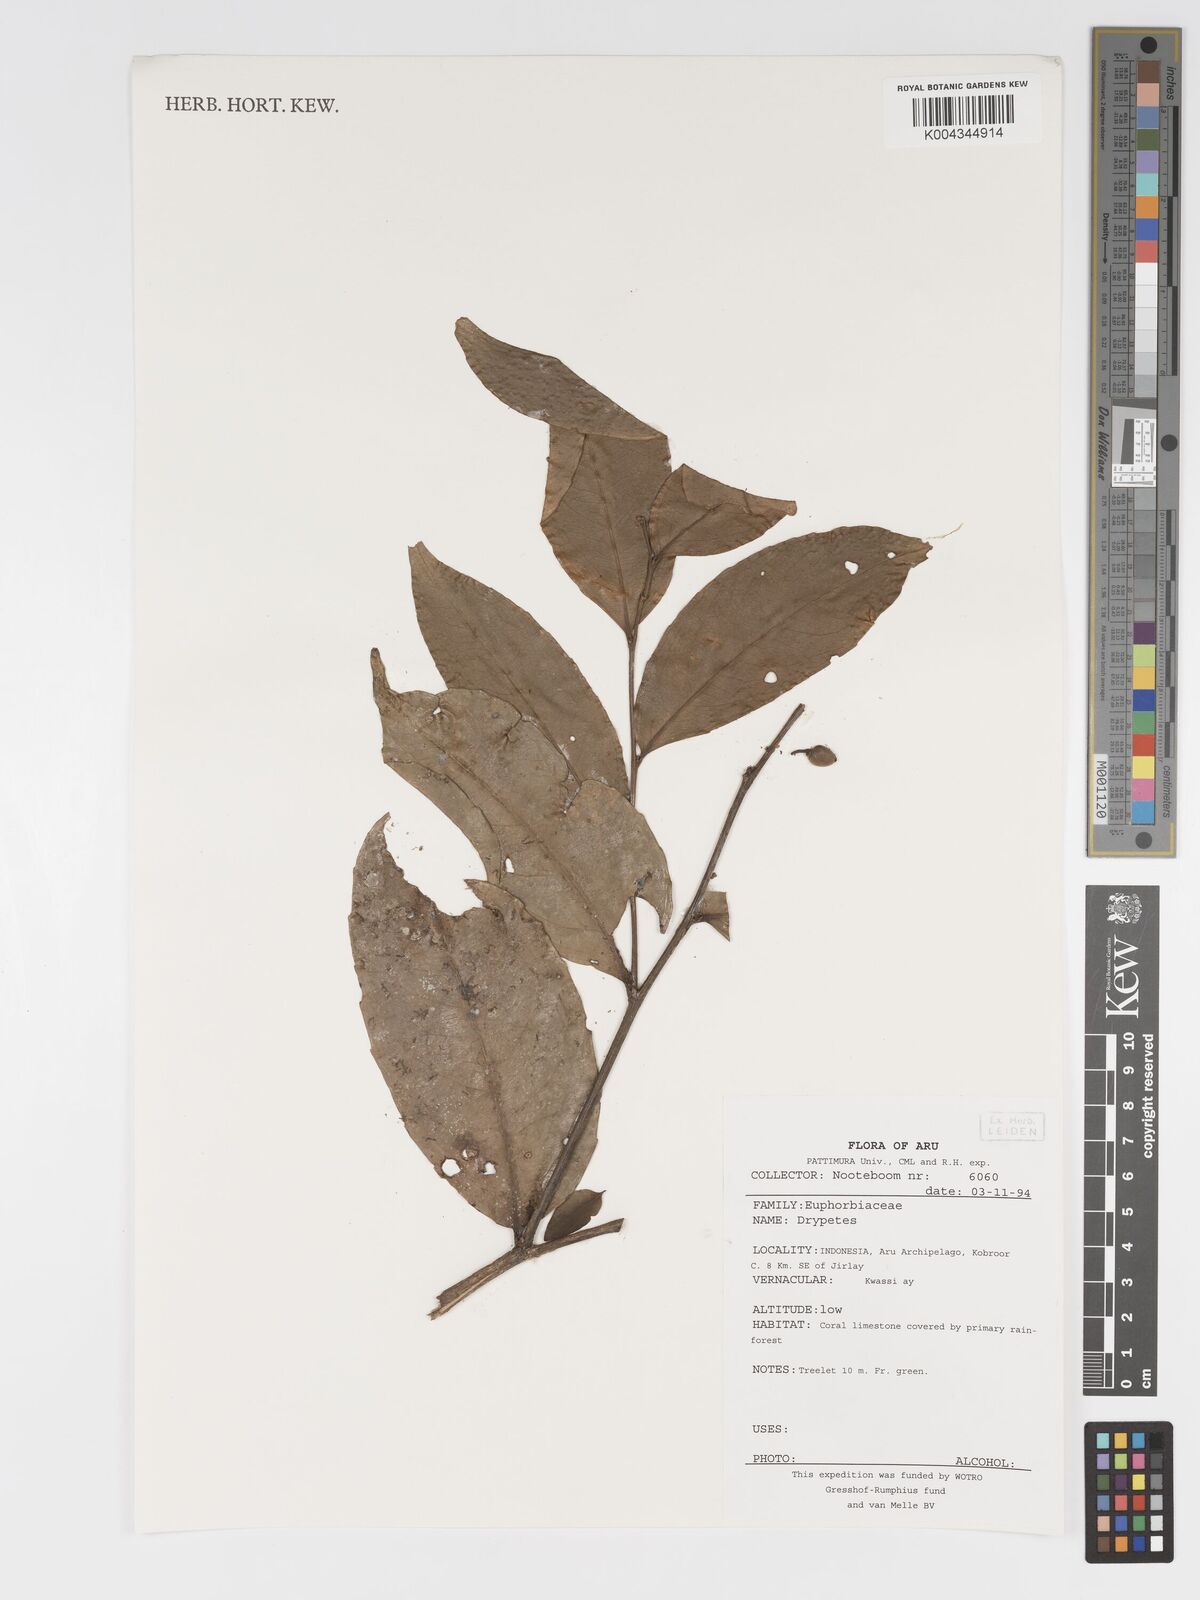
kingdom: Plantae
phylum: Tracheophyta
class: Magnoliopsida
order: Malpighiales
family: Putranjivaceae
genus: Drypetes
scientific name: Drypetes
